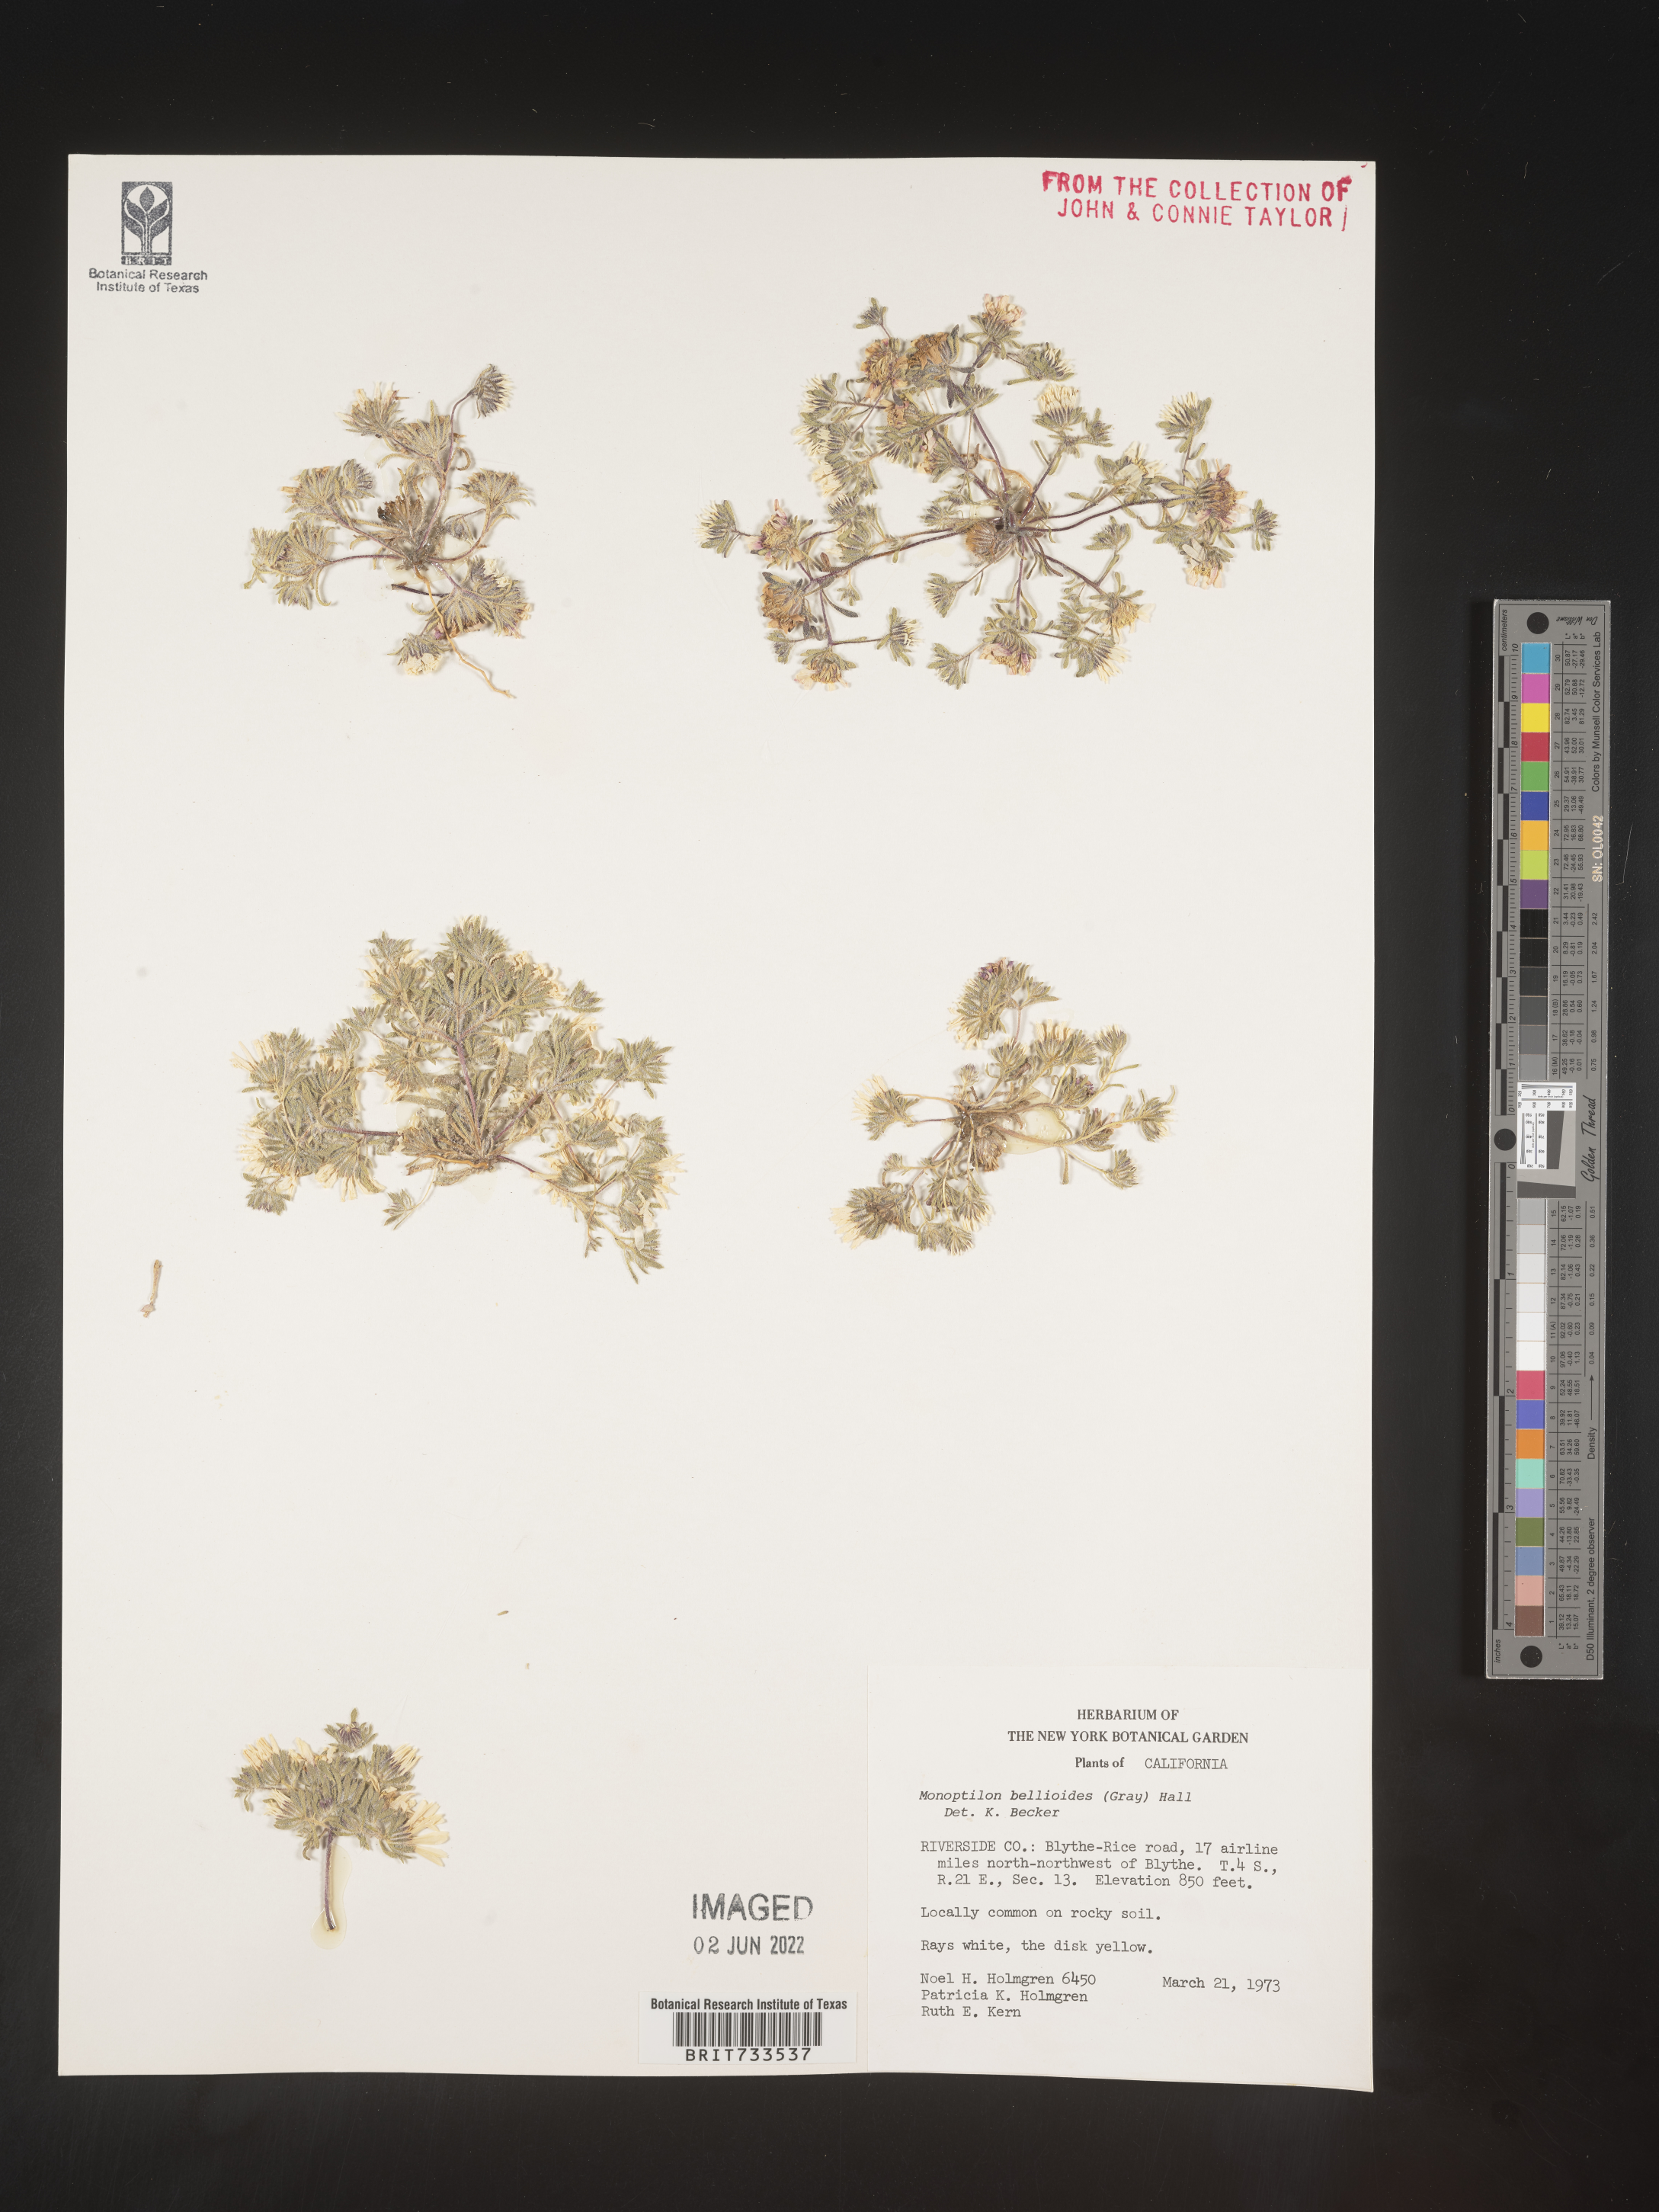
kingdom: Plantae
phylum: Tracheophyta
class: Magnoliopsida
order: Asterales
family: Asteraceae
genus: Monoptilon
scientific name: Monoptilon
